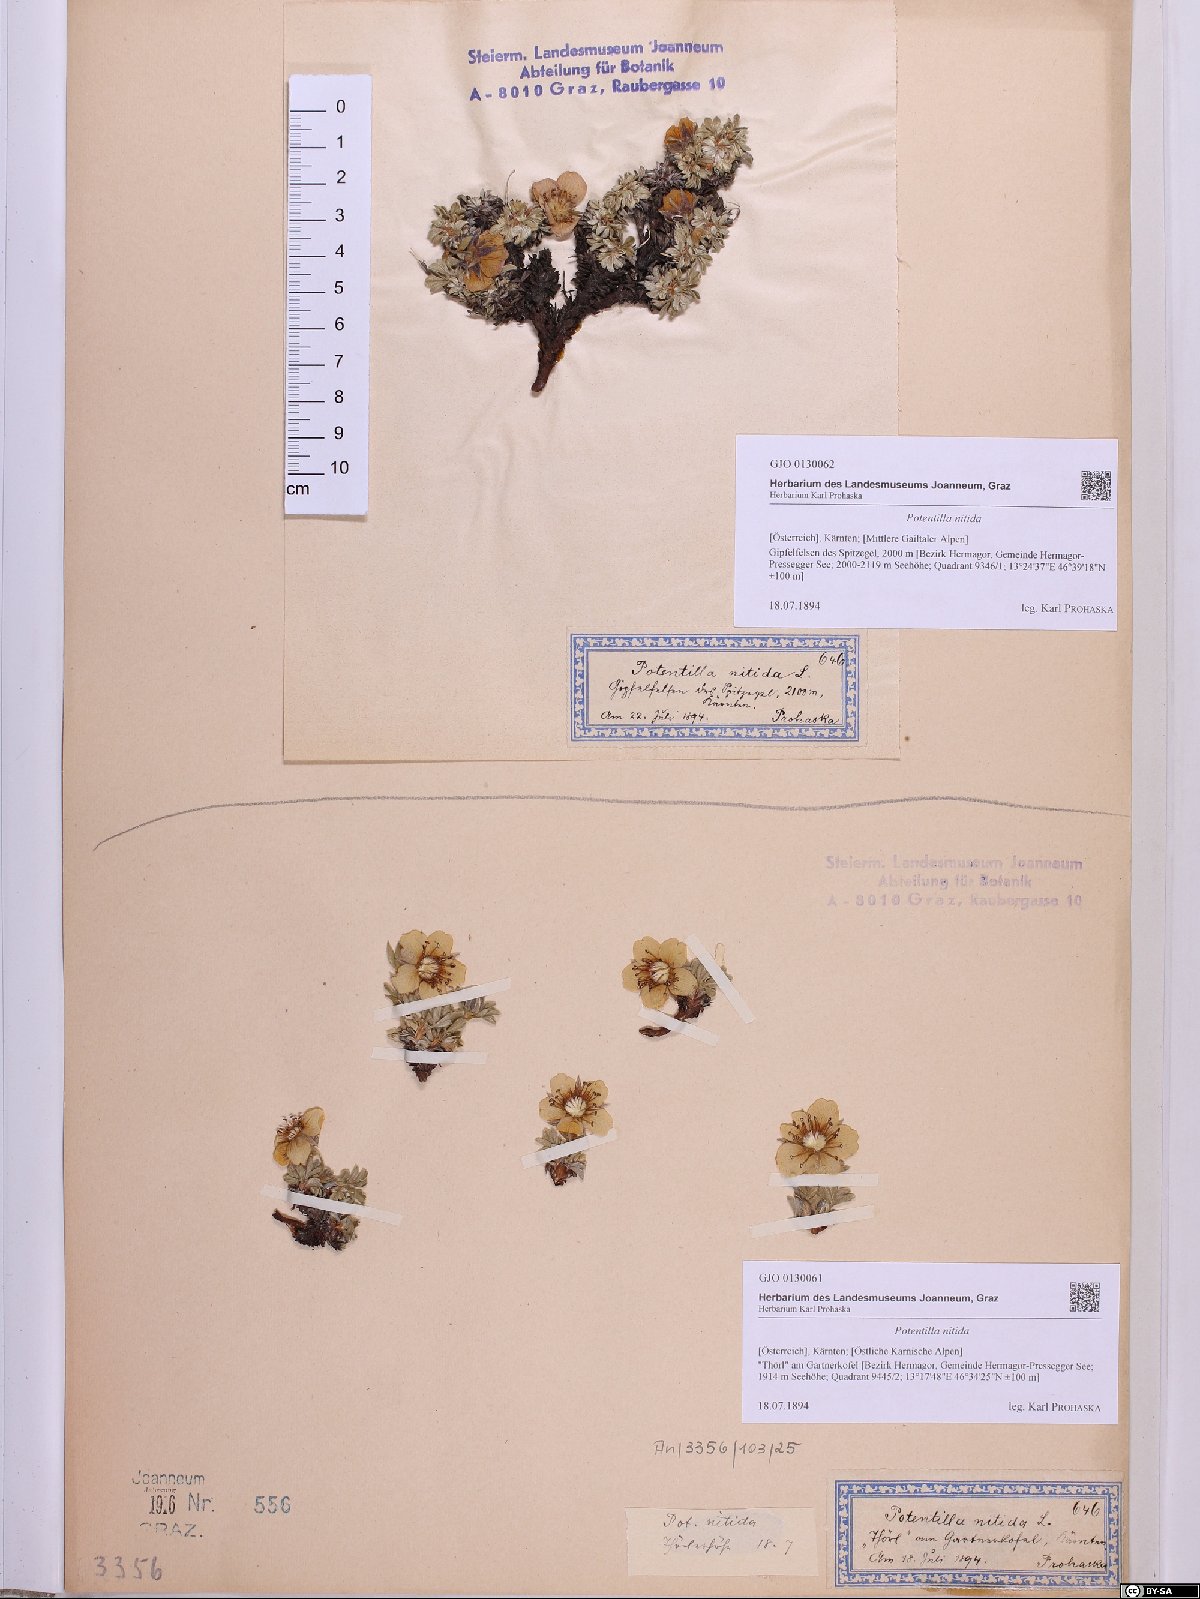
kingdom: Plantae
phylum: Tracheophyta
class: Magnoliopsida
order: Rosales
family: Rosaceae
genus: Potentilla
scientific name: Potentilla nitida
